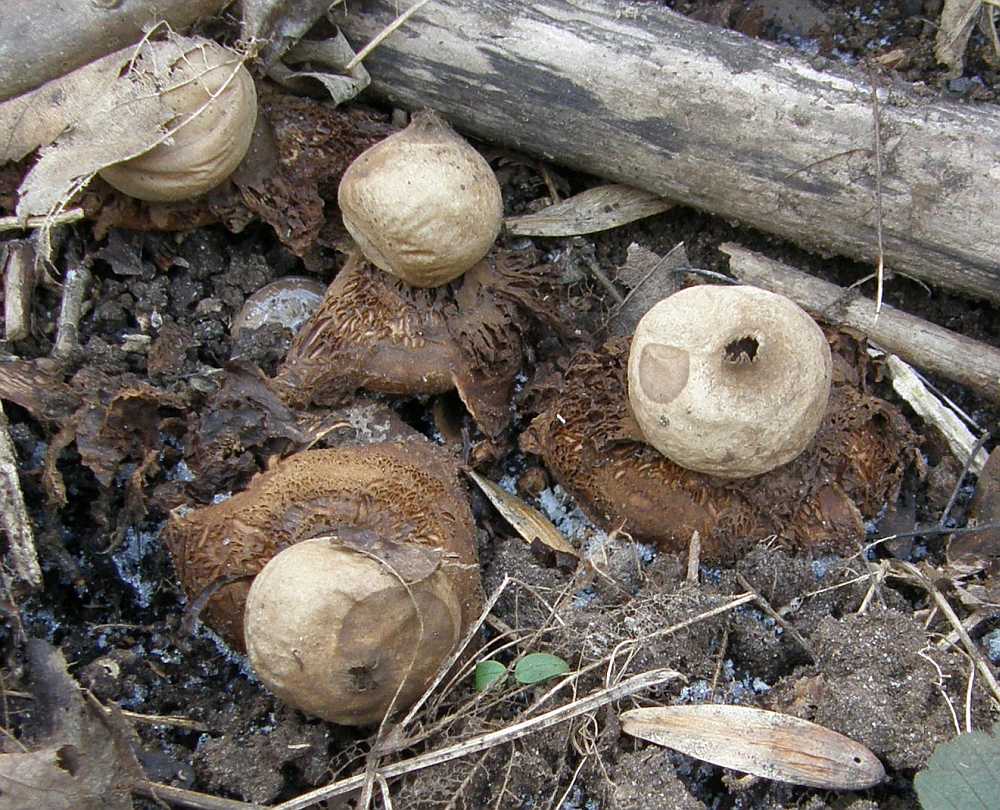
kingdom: Fungi
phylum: Basidiomycota
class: Agaricomycetes
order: Geastrales
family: Geastraceae
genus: Geastrum
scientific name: Geastrum michelianum
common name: kødet stjernebold
